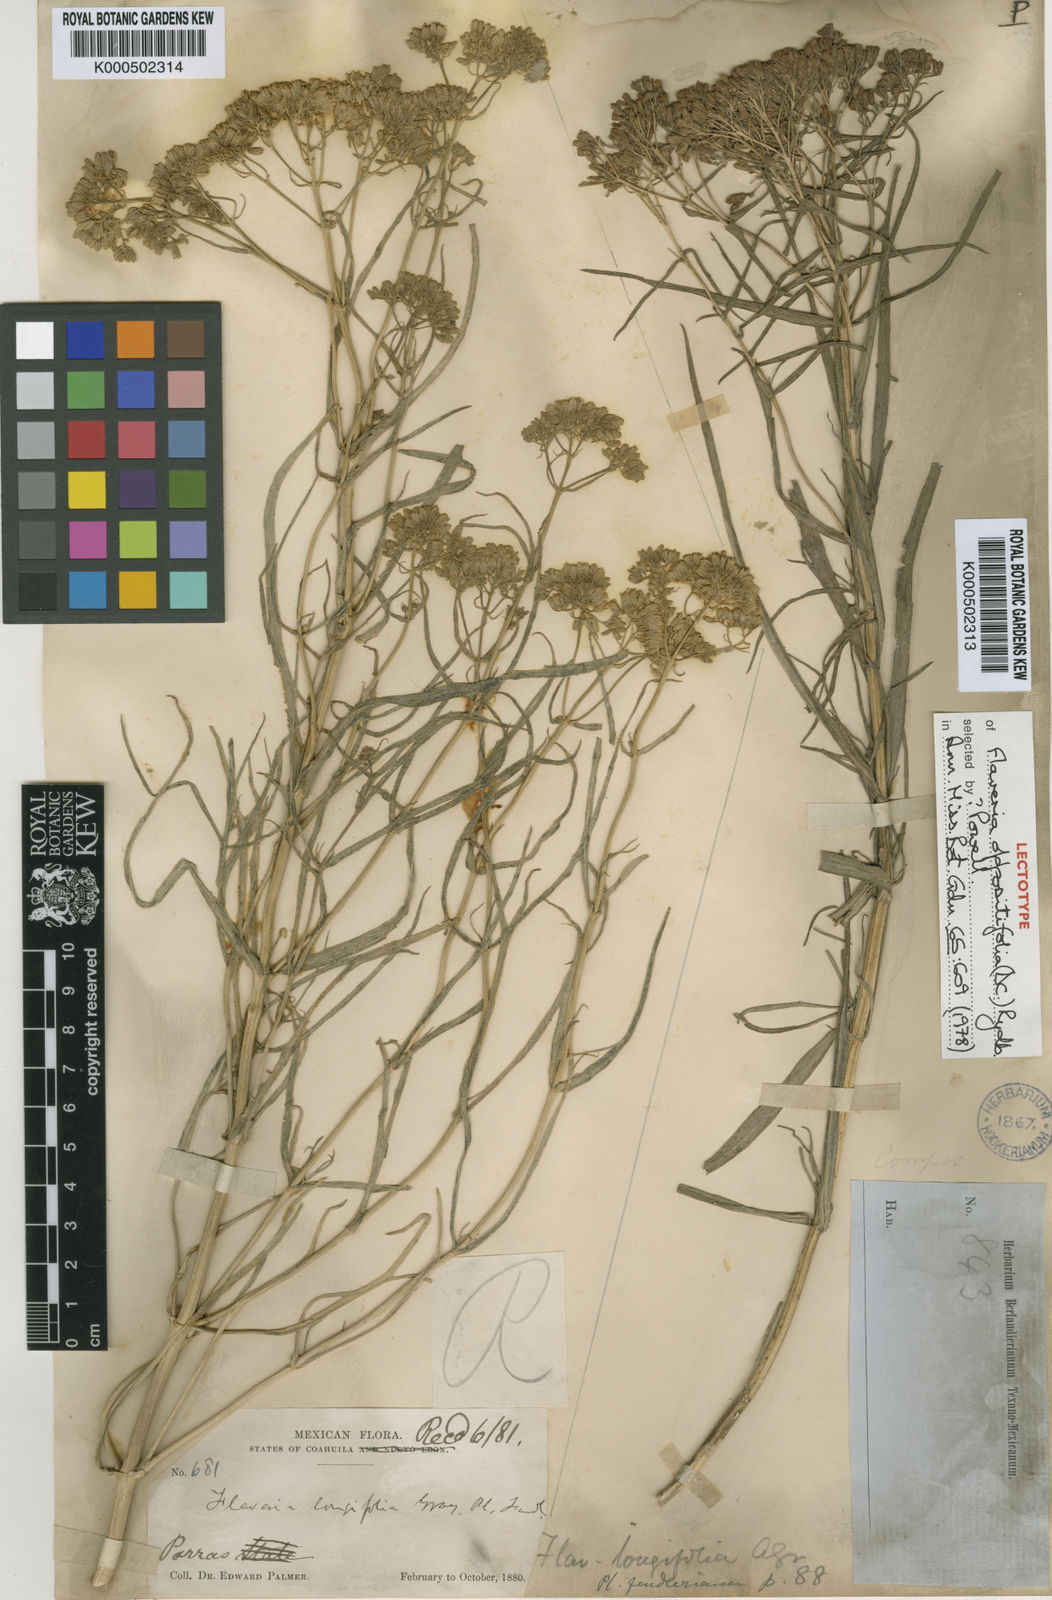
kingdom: Plantae
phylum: Tracheophyta
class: Magnoliopsida
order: Asterales
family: Asteraceae
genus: Flaveria
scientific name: Flaveria oppositifolia
